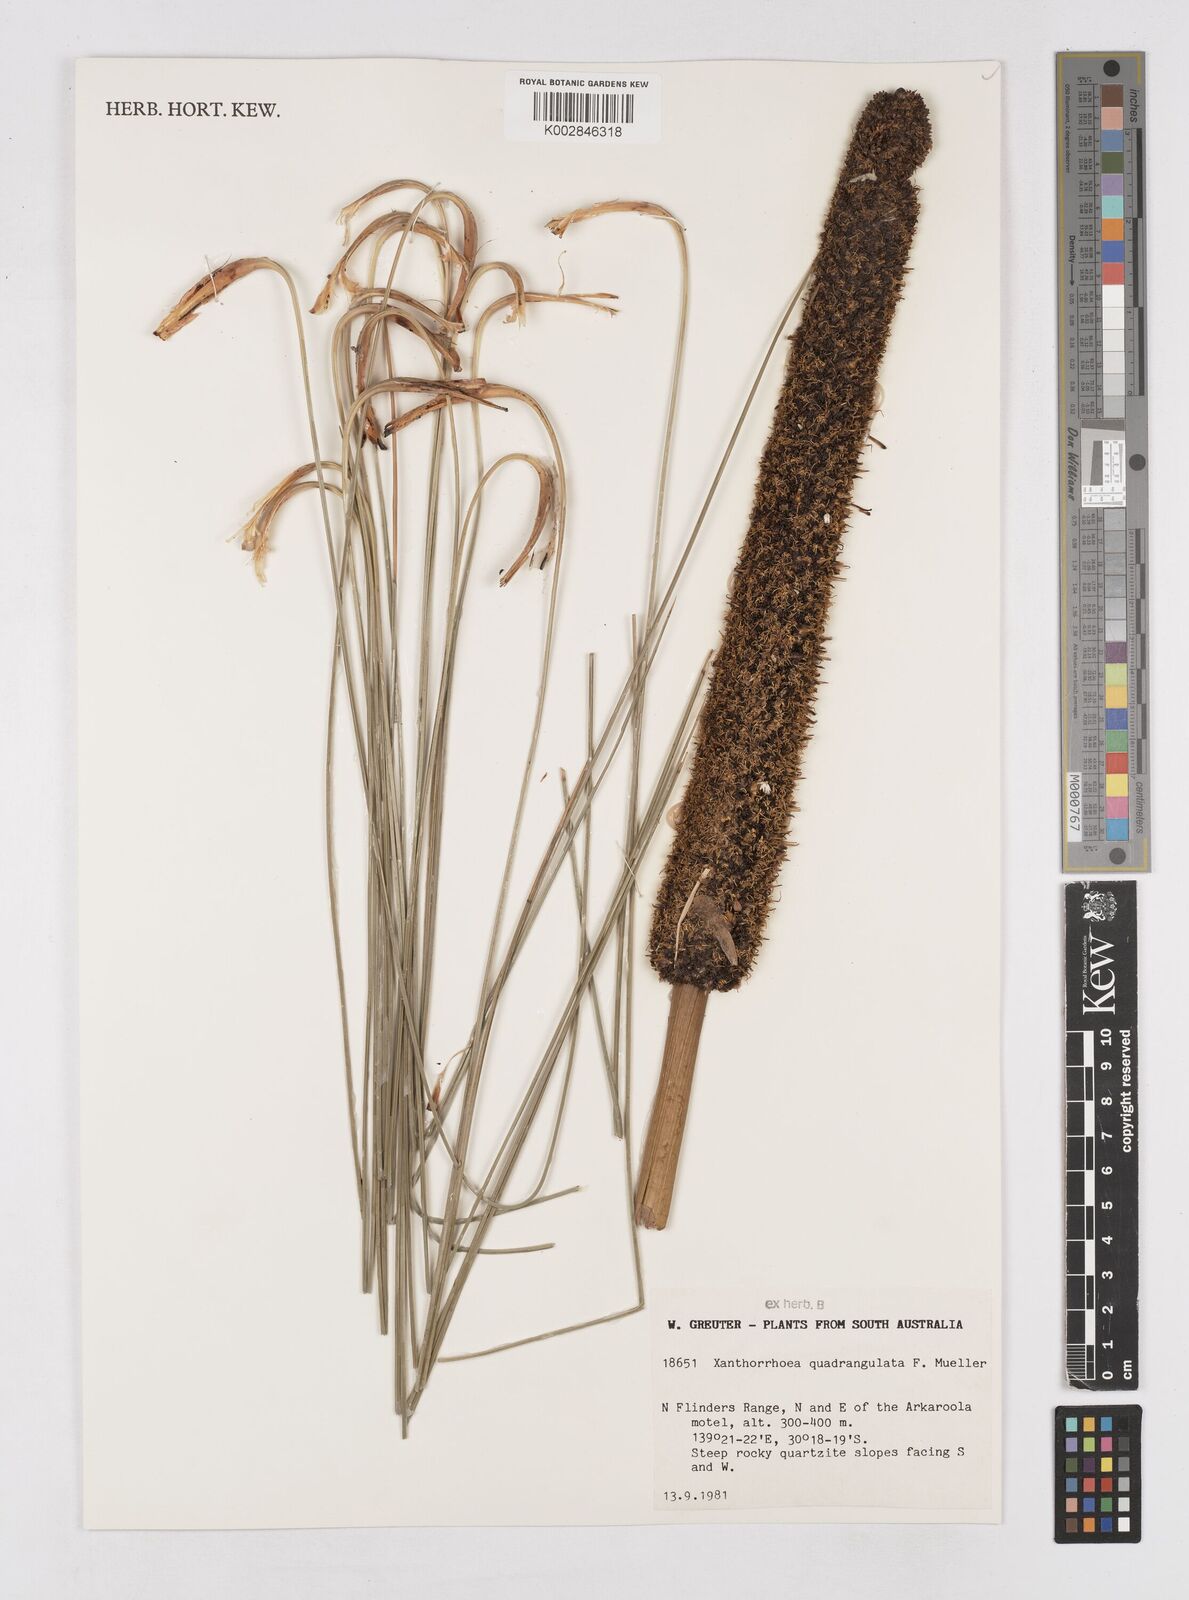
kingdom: Plantae
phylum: Tracheophyta
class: Liliopsida
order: Asparagales
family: Asphodelaceae
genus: Xanthorrhoea
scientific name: Xanthorrhoea quadrangulata
